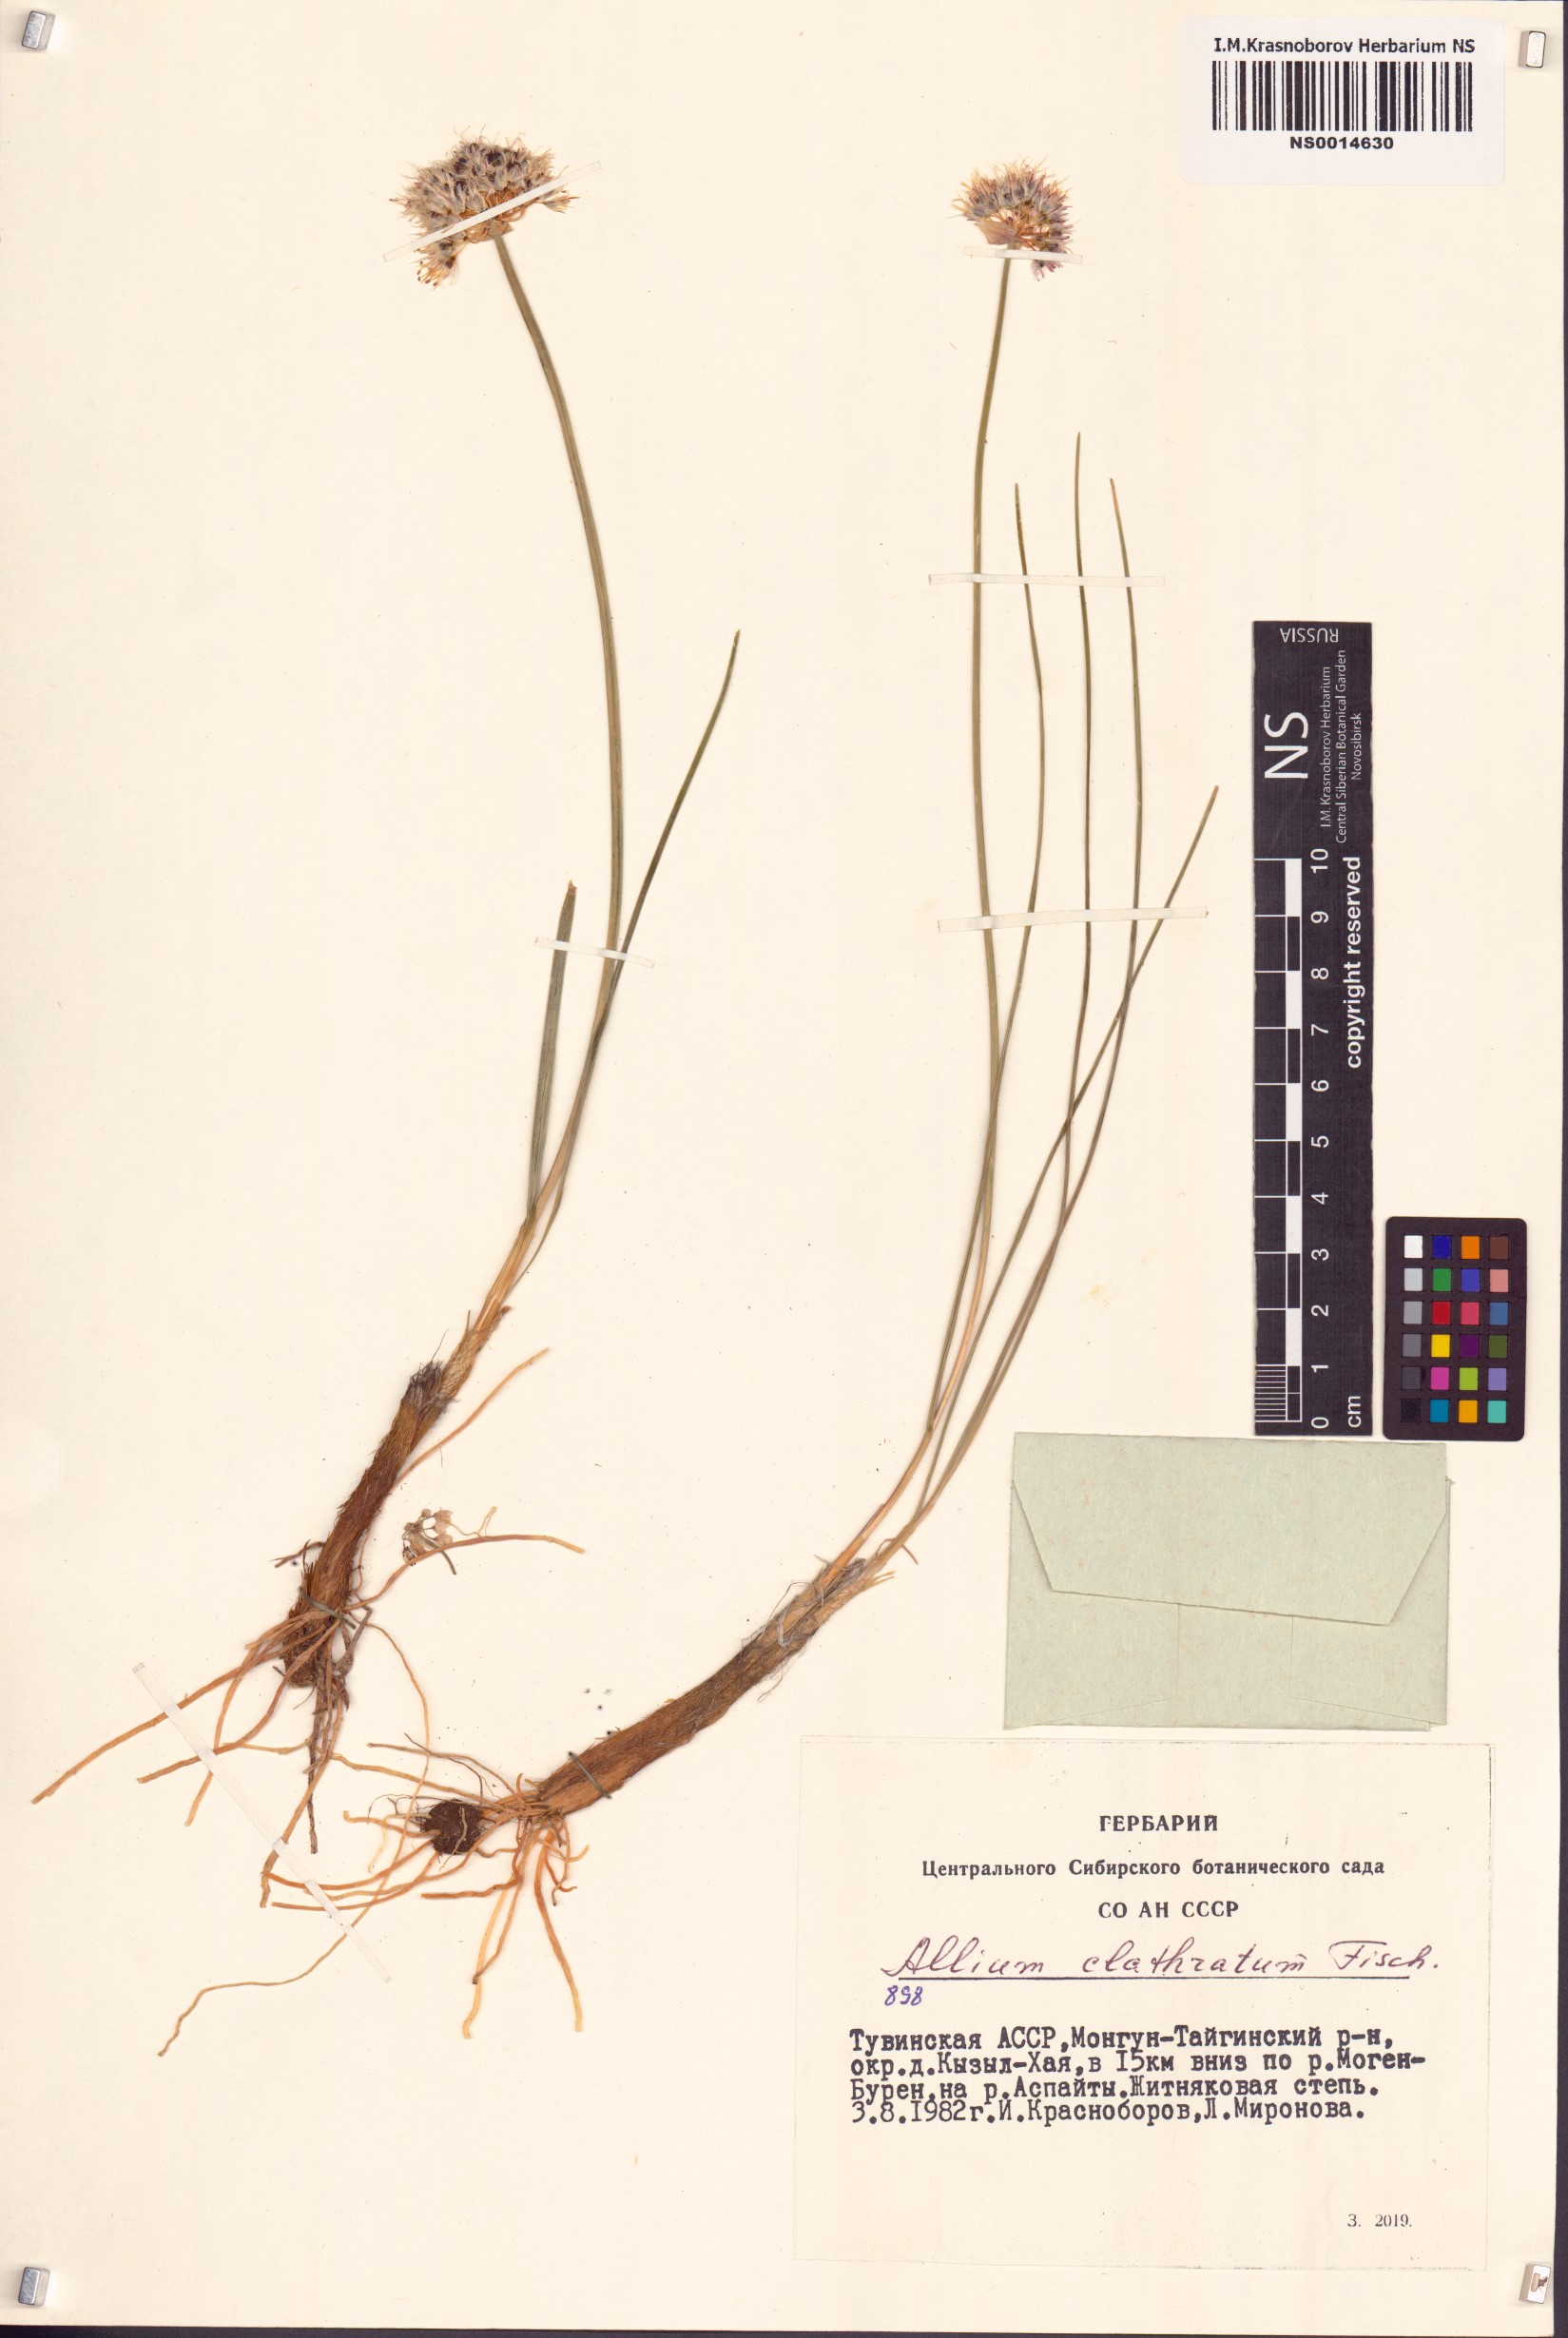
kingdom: Plantae
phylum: Tracheophyta
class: Liliopsida
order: Asparagales
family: Amaryllidaceae
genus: Allium
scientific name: Allium clathratum
